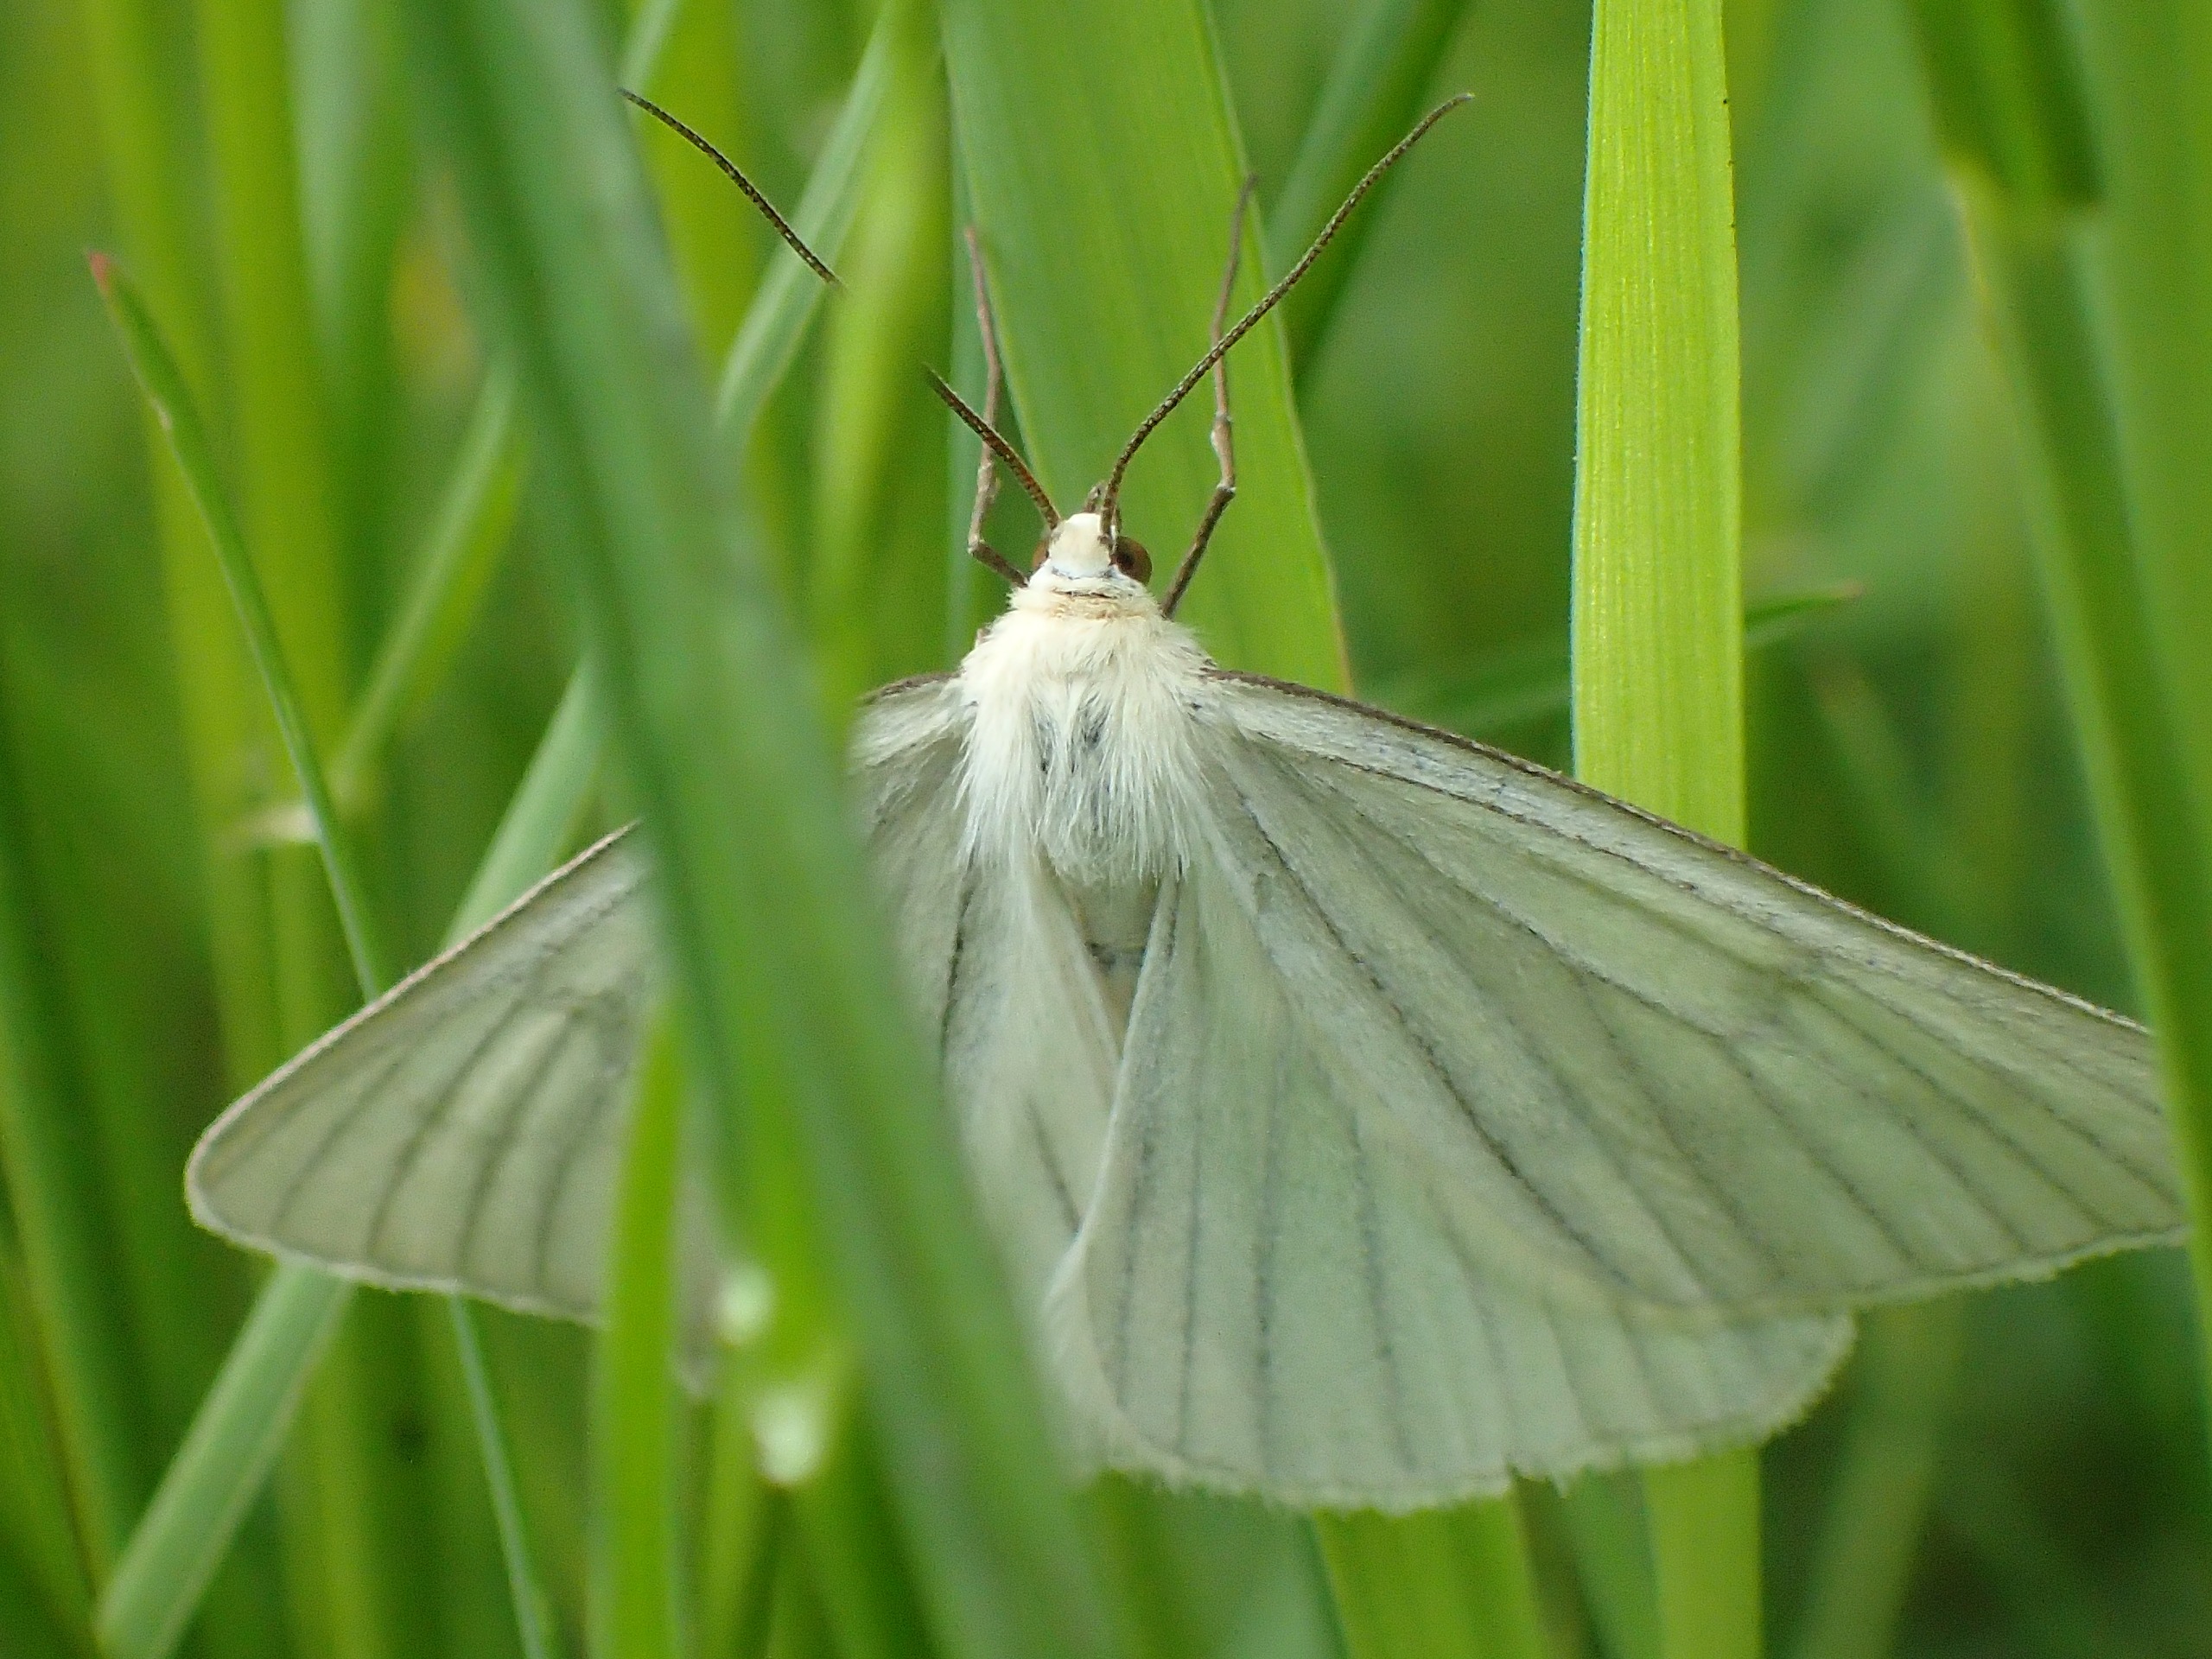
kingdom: Animalia
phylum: Arthropoda
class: Insecta
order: Lepidoptera
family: Geometridae
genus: Siona
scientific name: Siona lineata
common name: Hvidvingemåler
